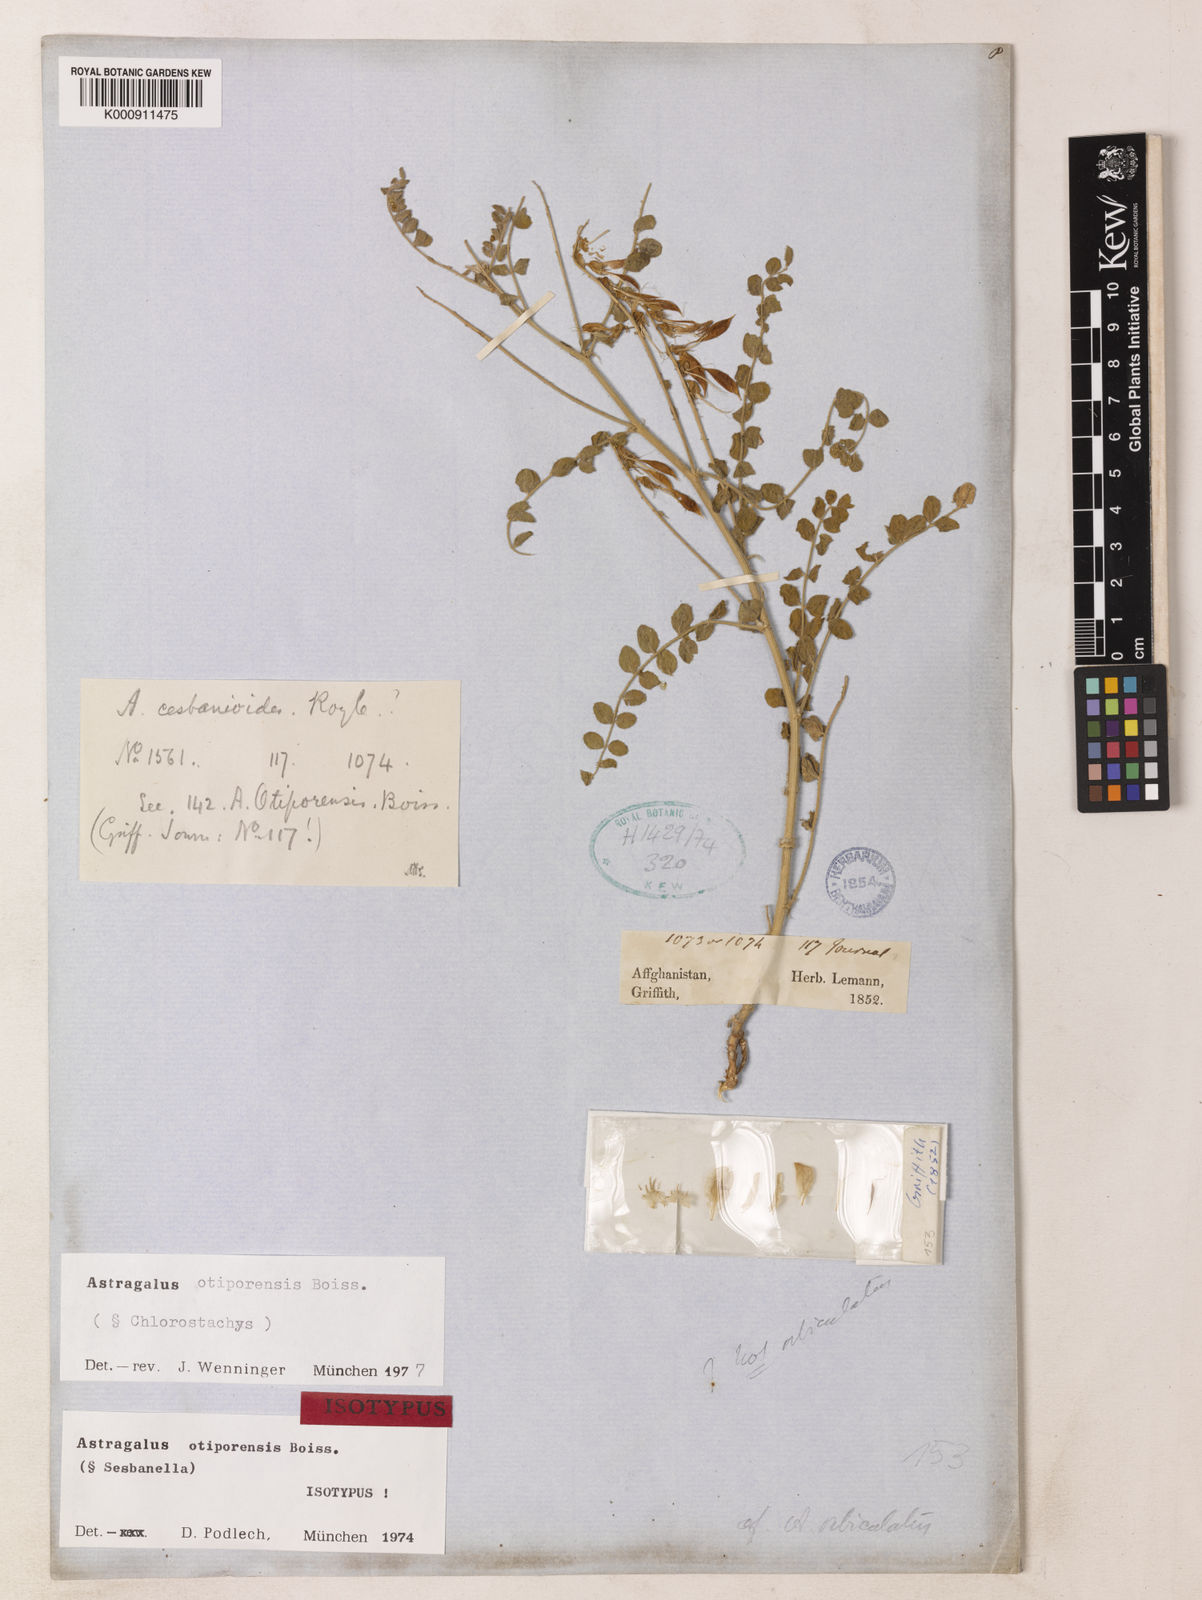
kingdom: Plantae
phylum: Tracheophyta
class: Magnoliopsida
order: Fabales
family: Fabaceae
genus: Astragalus
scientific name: Astragalus otiporensis
